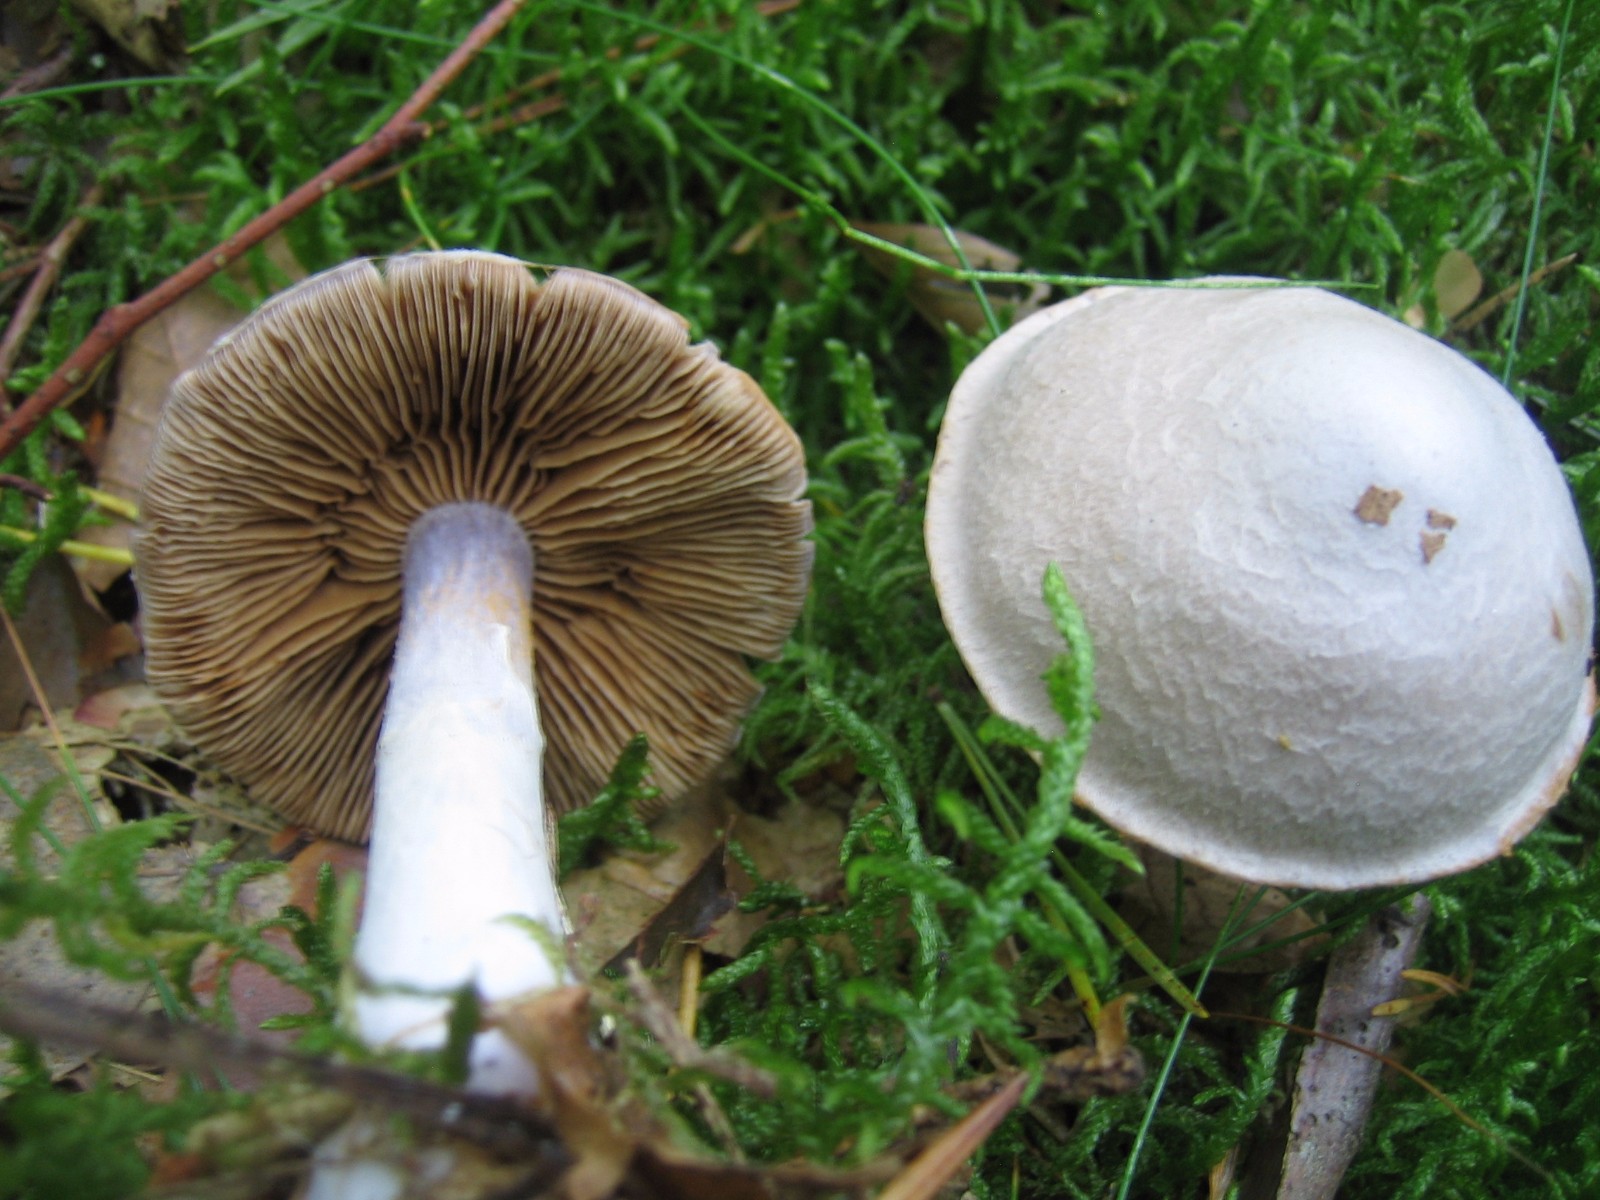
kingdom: Fungi
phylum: Basidiomycota
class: Agaricomycetes
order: Agaricales
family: Cortinariaceae
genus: Cortinarius
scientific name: Cortinarius alboviolaceus
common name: lysviolet slørhat
